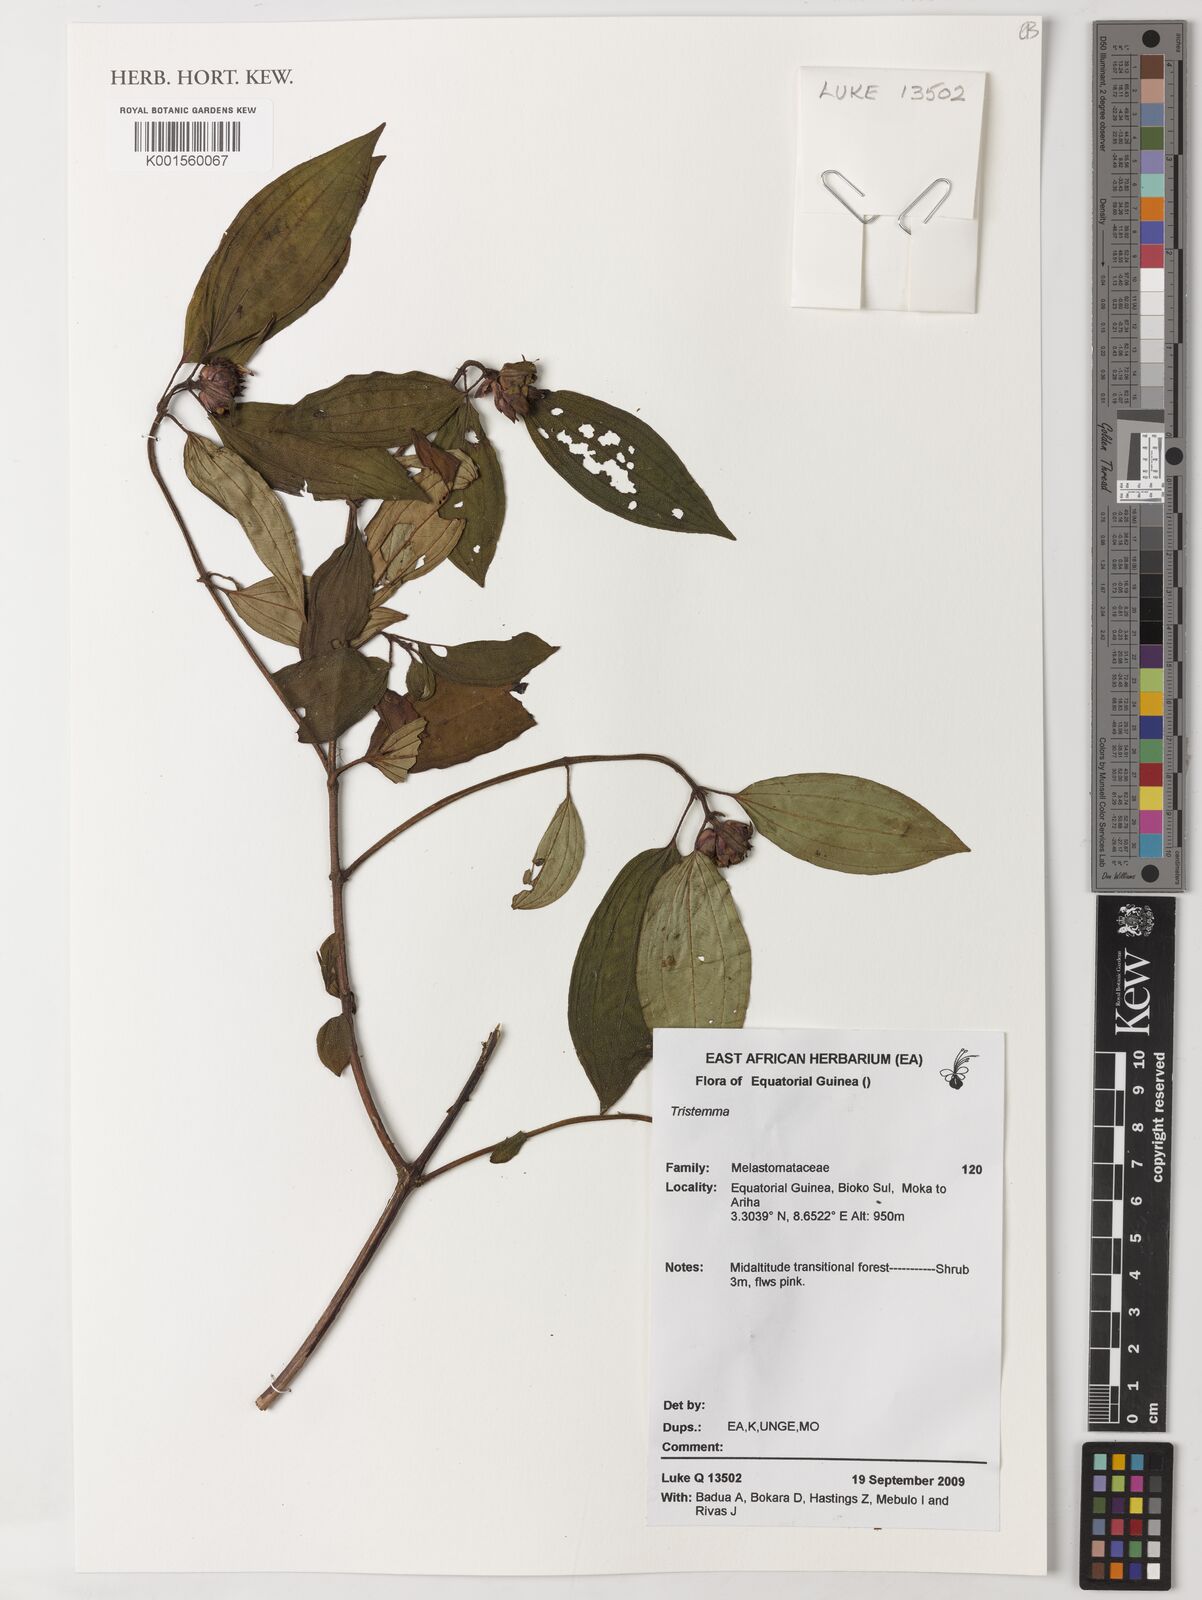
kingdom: Plantae
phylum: Tracheophyta
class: Magnoliopsida
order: Myrtales
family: Melastomataceae
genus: Tristemma
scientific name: Tristemma
